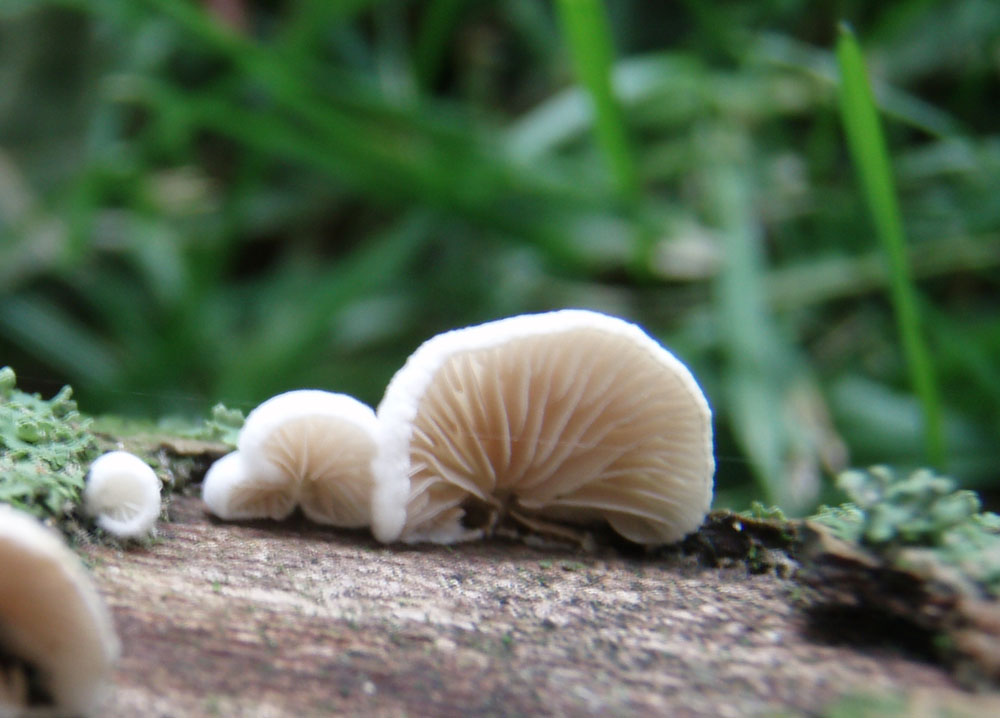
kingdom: Fungi
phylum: Basidiomycota
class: Agaricomycetes
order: Agaricales
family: Crepidotaceae
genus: Crepidotus
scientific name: Crepidotus cesatii
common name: almindelig muslingesvamp
